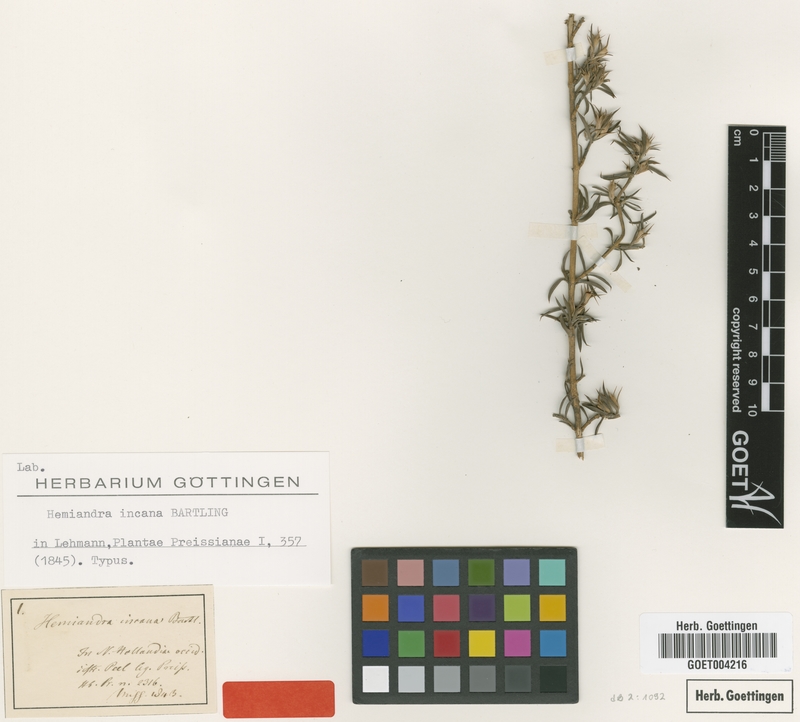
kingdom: Plantae
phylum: Tracheophyta
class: Magnoliopsida
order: Lamiales
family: Lamiaceae
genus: Hemiandra
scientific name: Hemiandra incana
